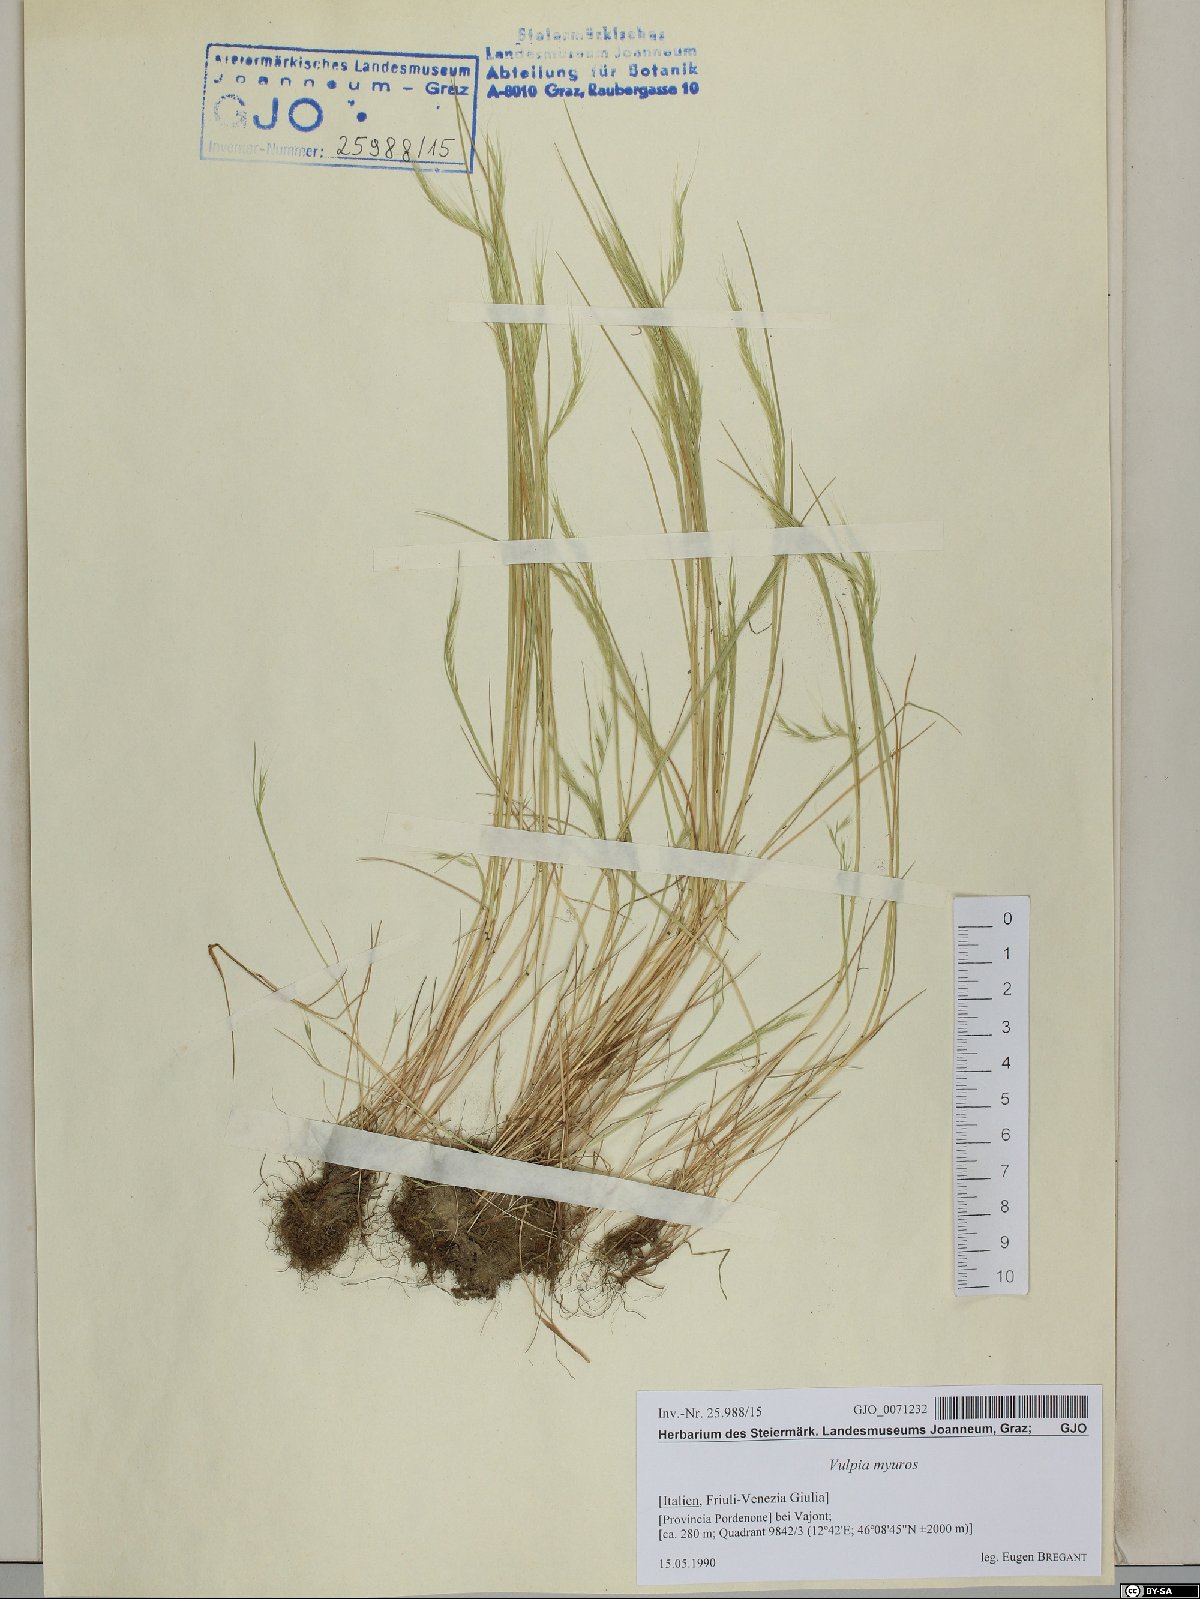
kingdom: Plantae
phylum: Tracheophyta
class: Liliopsida
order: Poales
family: Poaceae
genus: Festuca
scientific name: Festuca myuros
